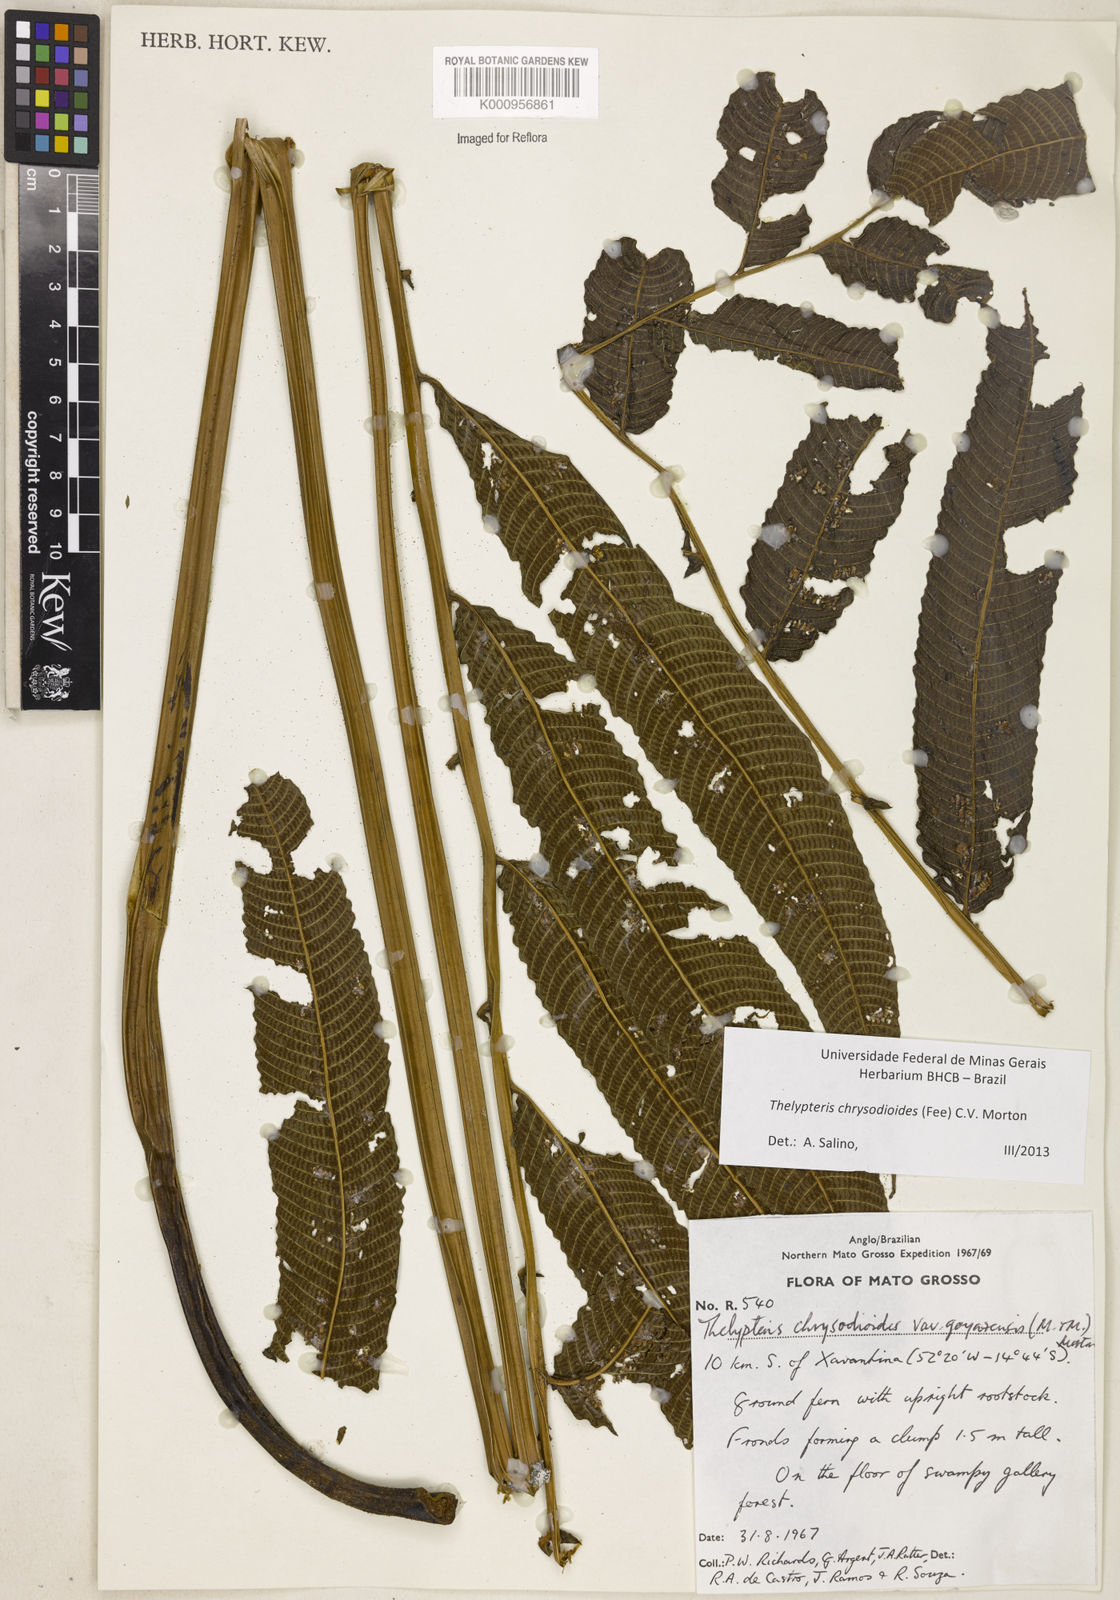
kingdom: Plantae
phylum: Tracheophyta
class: Polypodiopsida
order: Polypodiales
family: Thelypteridaceae
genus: Meniscium
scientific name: Meniscium
